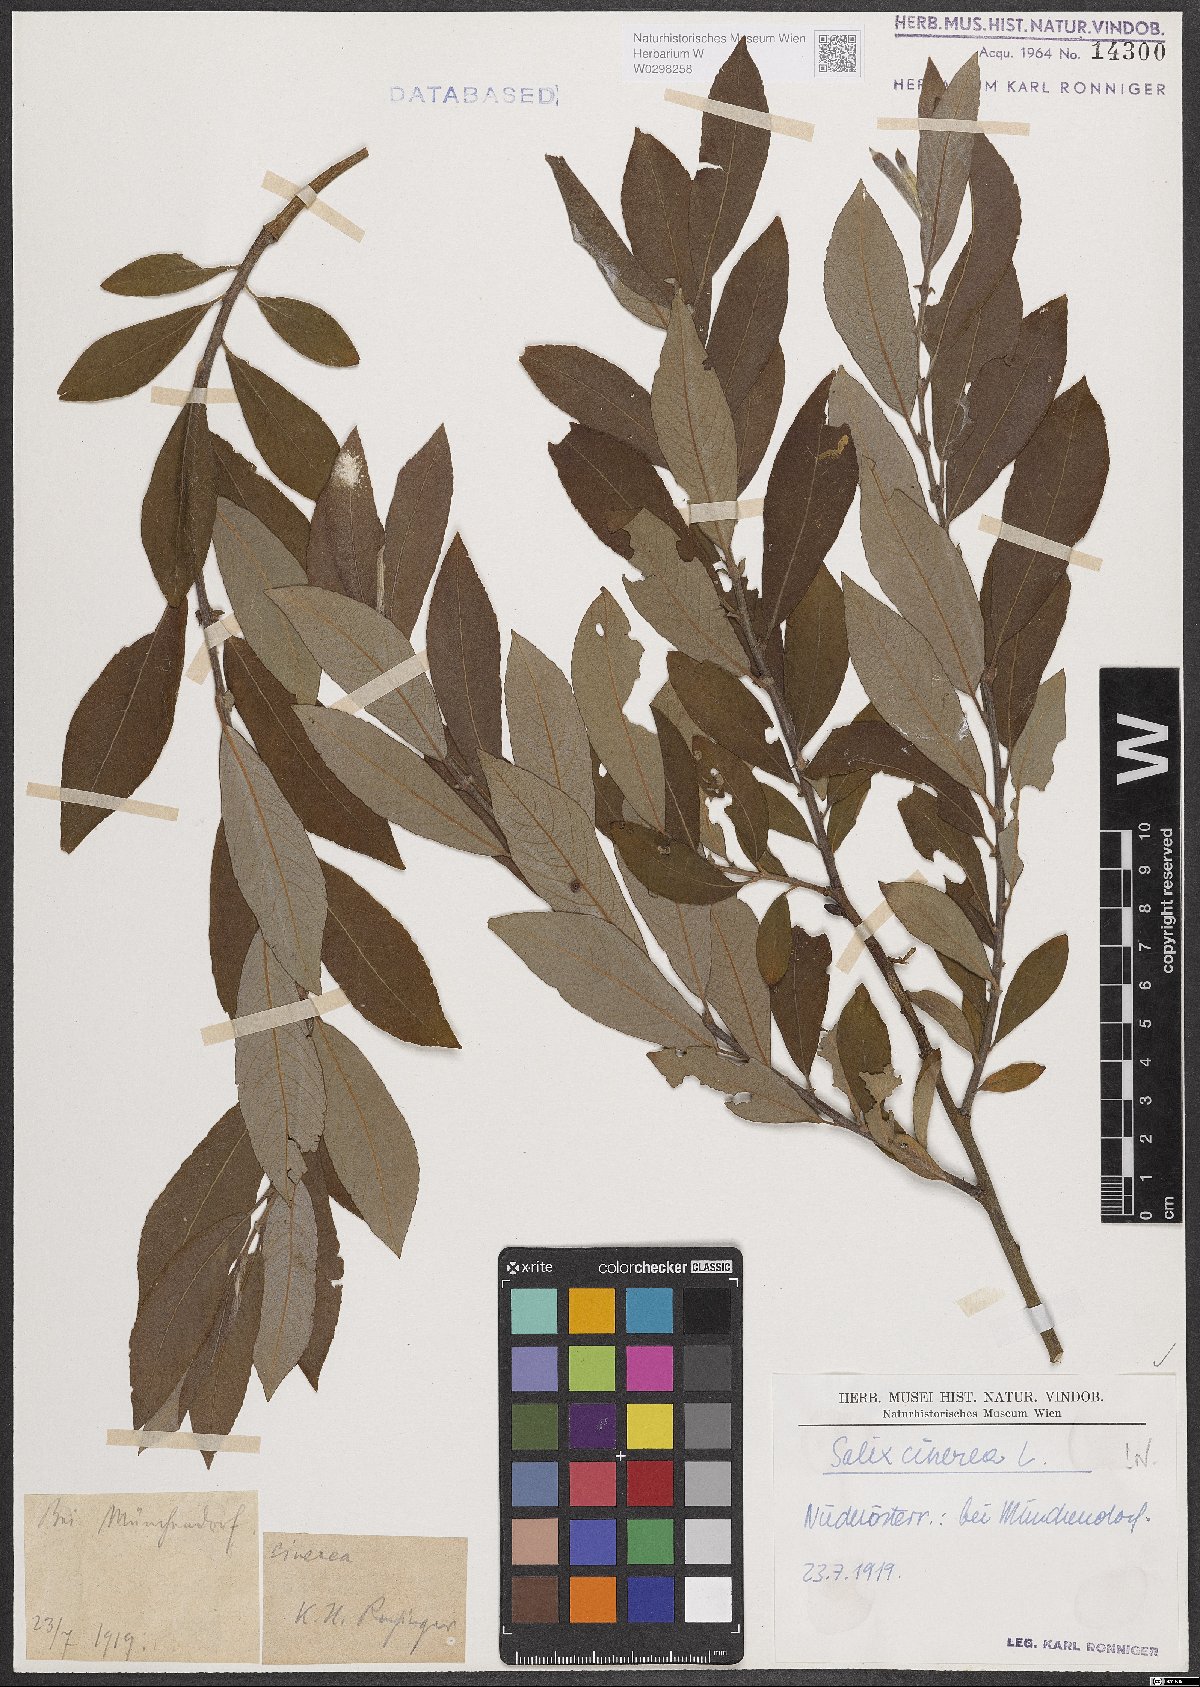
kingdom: Plantae
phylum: Tracheophyta
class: Magnoliopsida
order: Malpighiales
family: Salicaceae
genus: Salix
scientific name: Salix cinerea
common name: Common sallow
